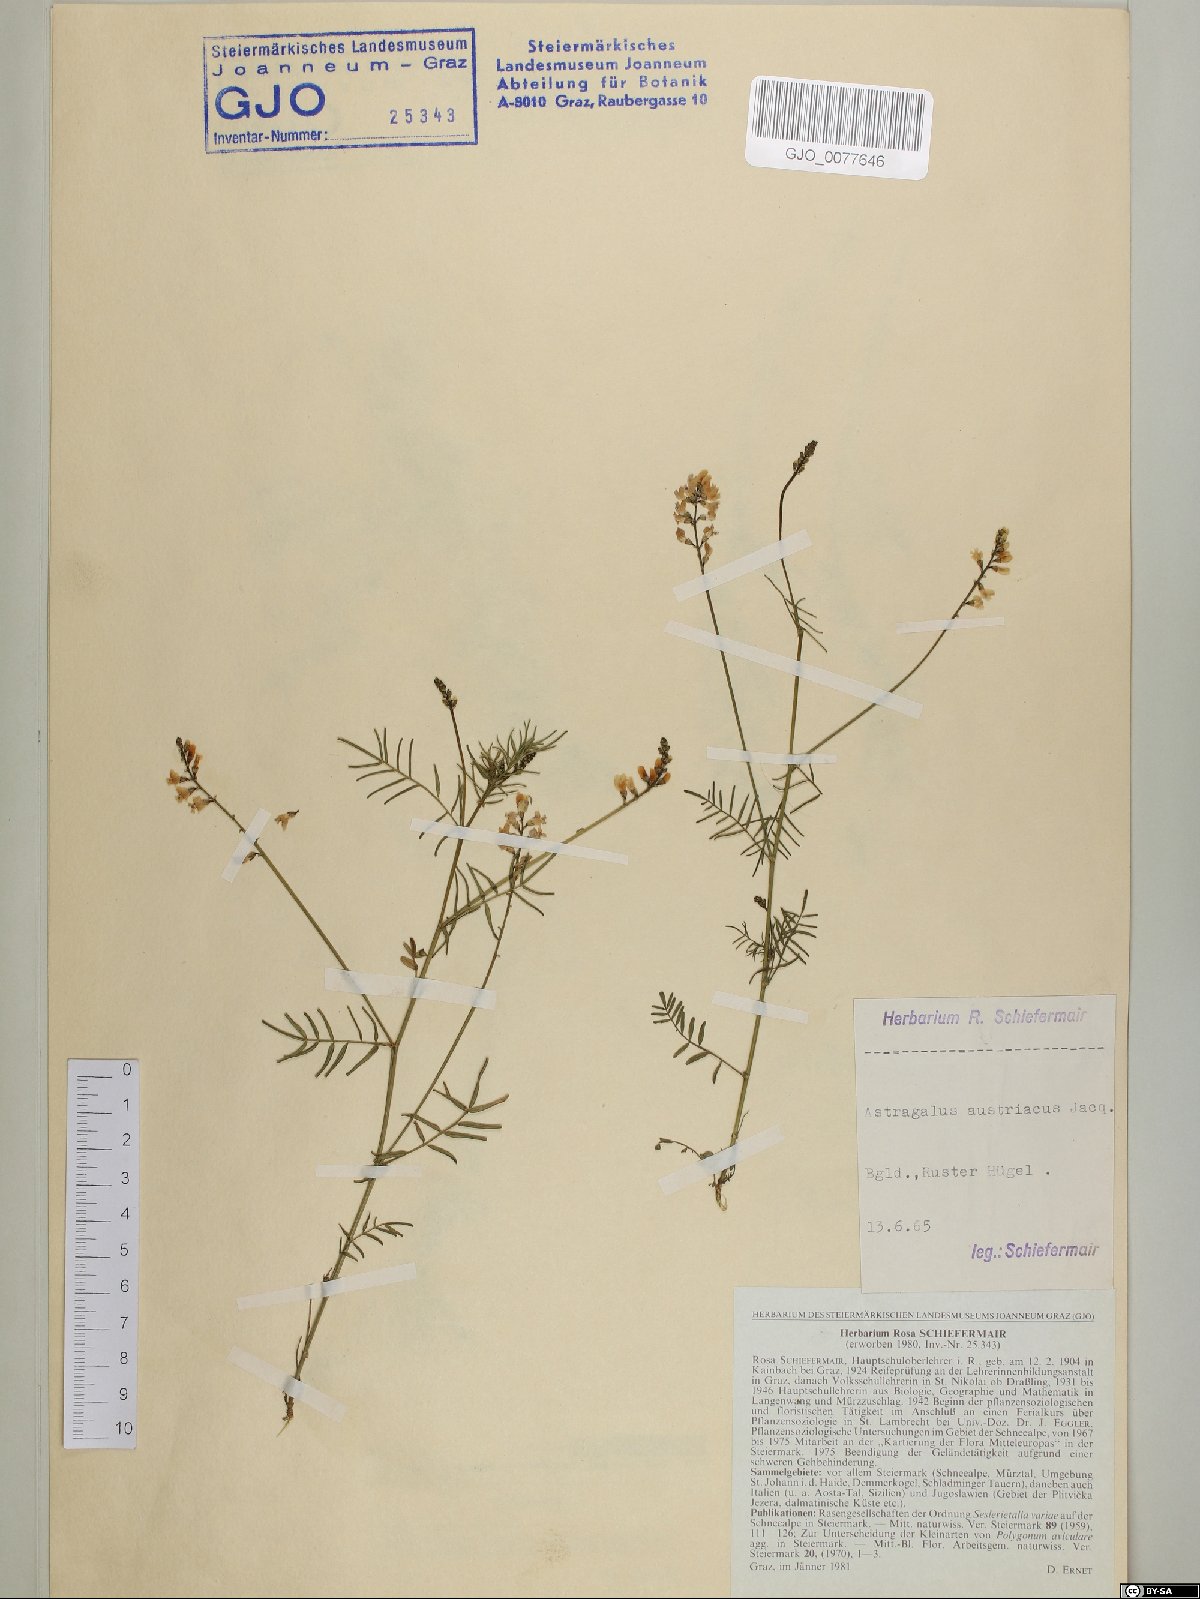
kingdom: Plantae
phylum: Tracheophyta
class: Magnoliopsida
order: Fabales
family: Fabaceae
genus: Astragalus
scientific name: Astragalus austriacus
